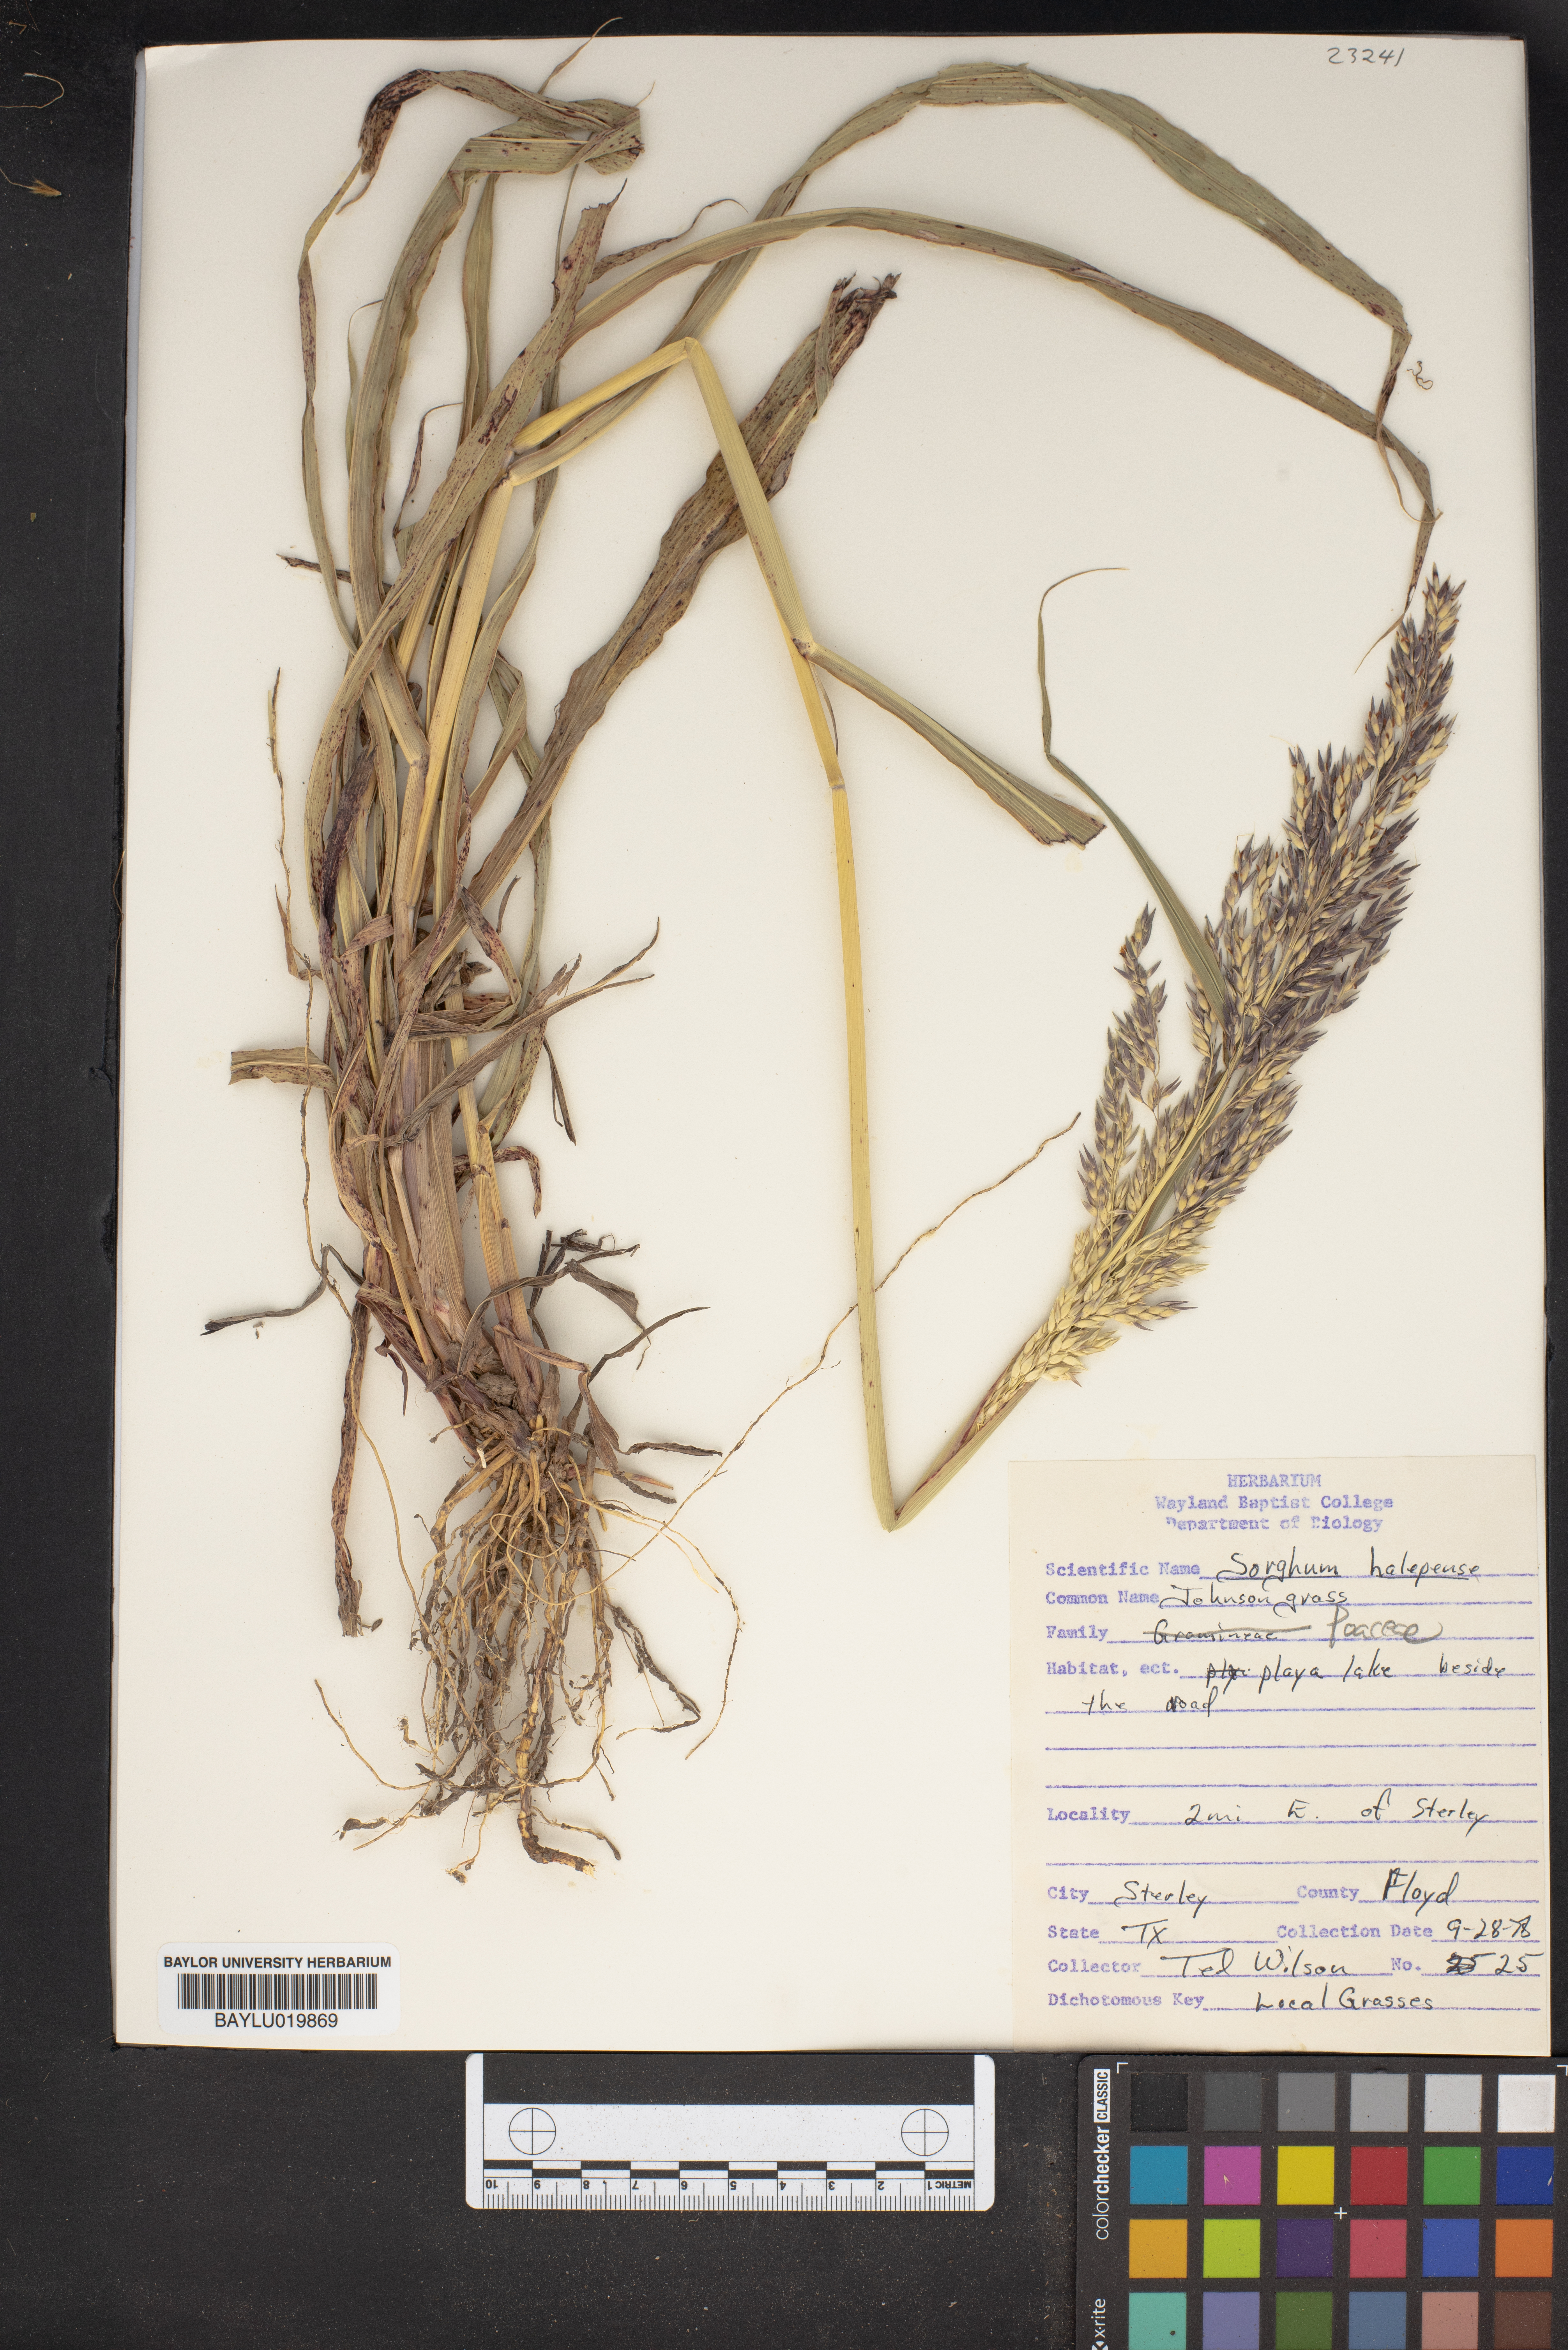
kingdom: Plantae
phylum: Tracheophyta
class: Liliopsida
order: Poales
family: Poaceae
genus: Sorghum
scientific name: Sorghum halepense
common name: Johnson-grass
